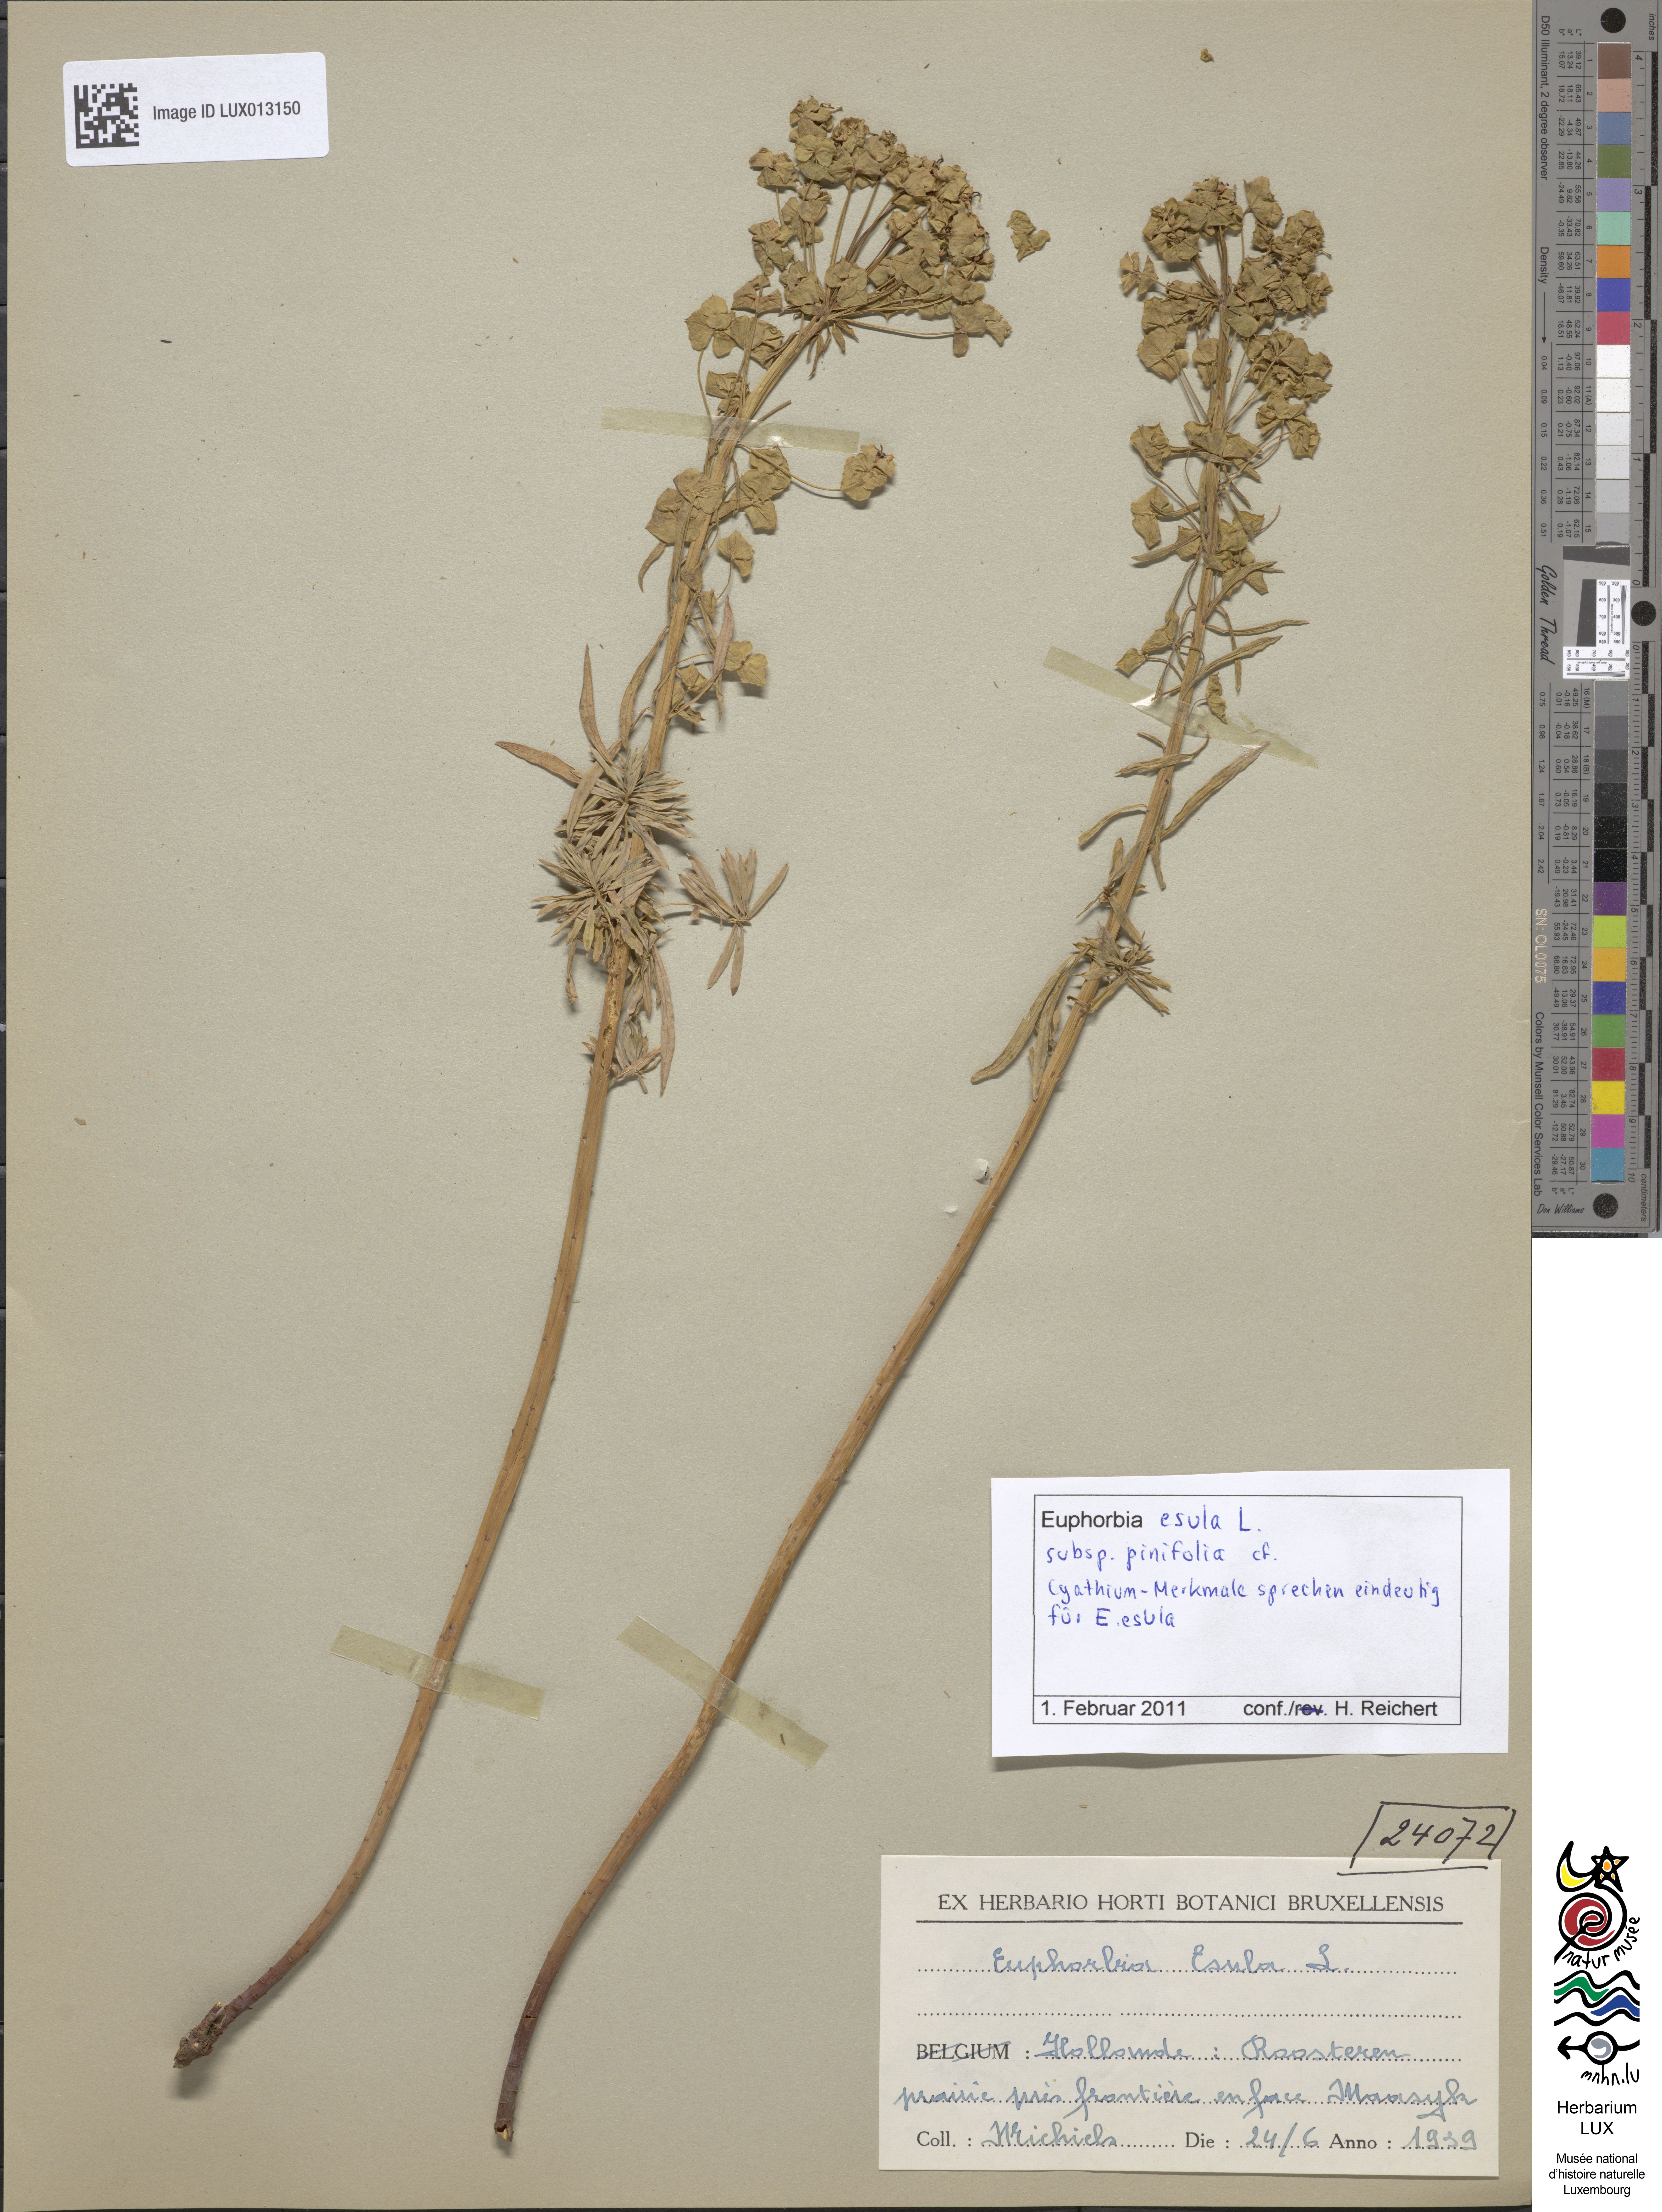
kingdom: Plantae
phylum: Tracheophyta
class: Magnoliopsida
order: Malpighiales
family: Euphorbiaceae
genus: Euphorbia
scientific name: Euphorbia esula
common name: Leafy spurge
